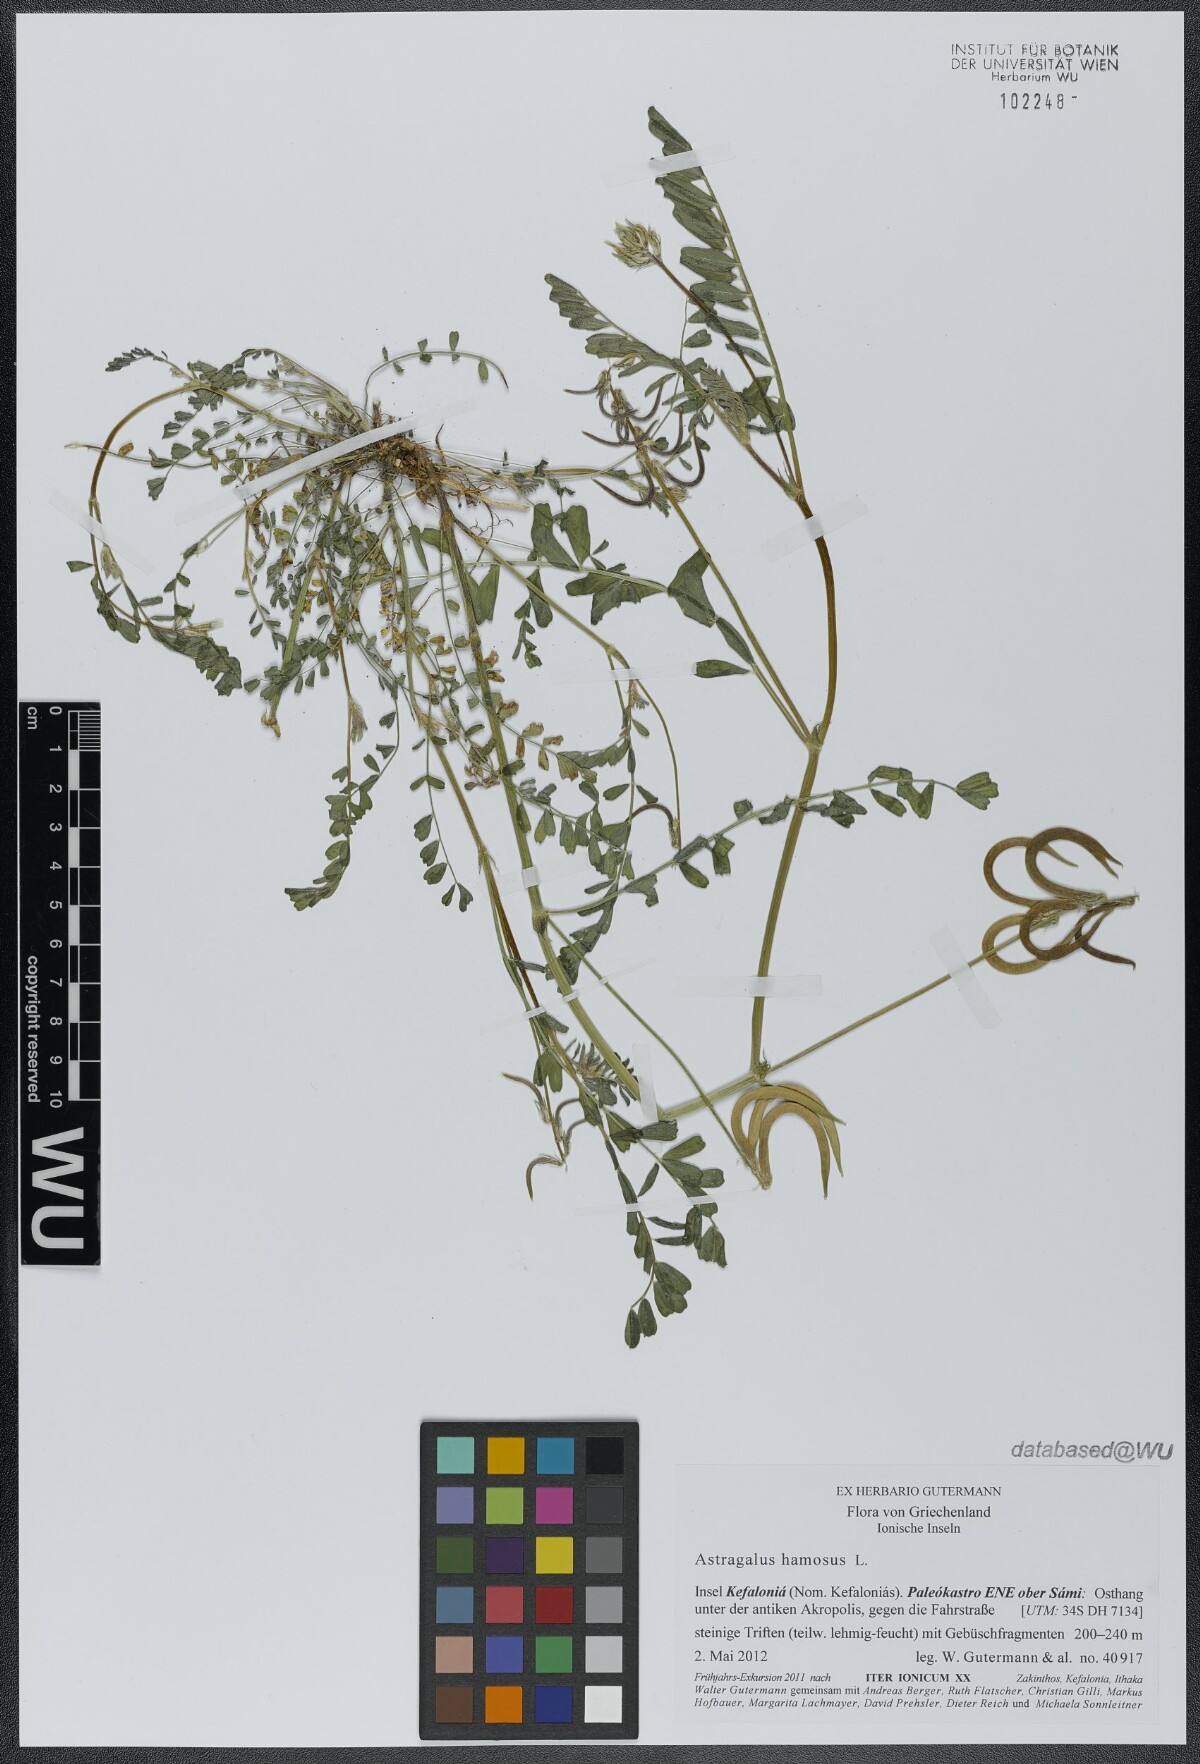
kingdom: Plantae
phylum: Tracheophyta
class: Magnoliopsida
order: Fabales
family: Fabaceae
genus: Astragalus
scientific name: Astragalus hamosus
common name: European milkvetch
